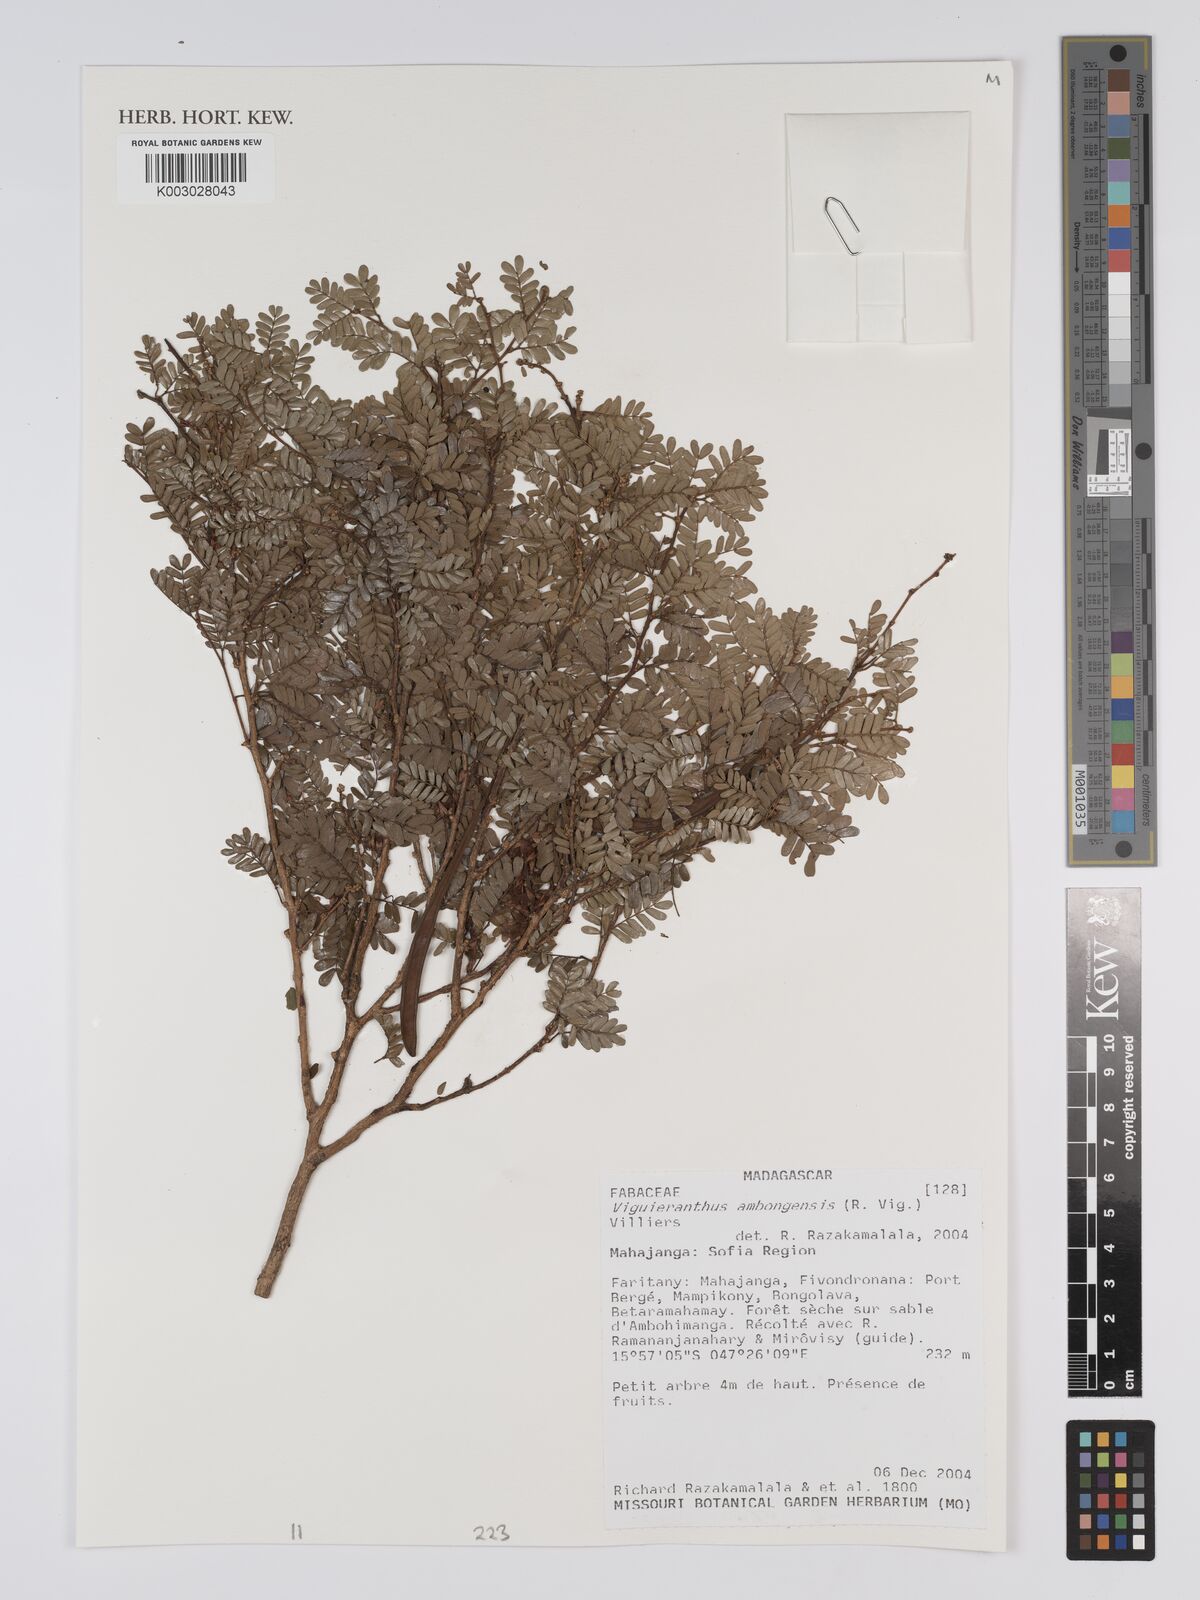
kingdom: Plantae
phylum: Tracheophyta
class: Magnoliopsida
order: Fabales
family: Fabaceae
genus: Viguieranthus
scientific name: Viguieranthus ambongensis
